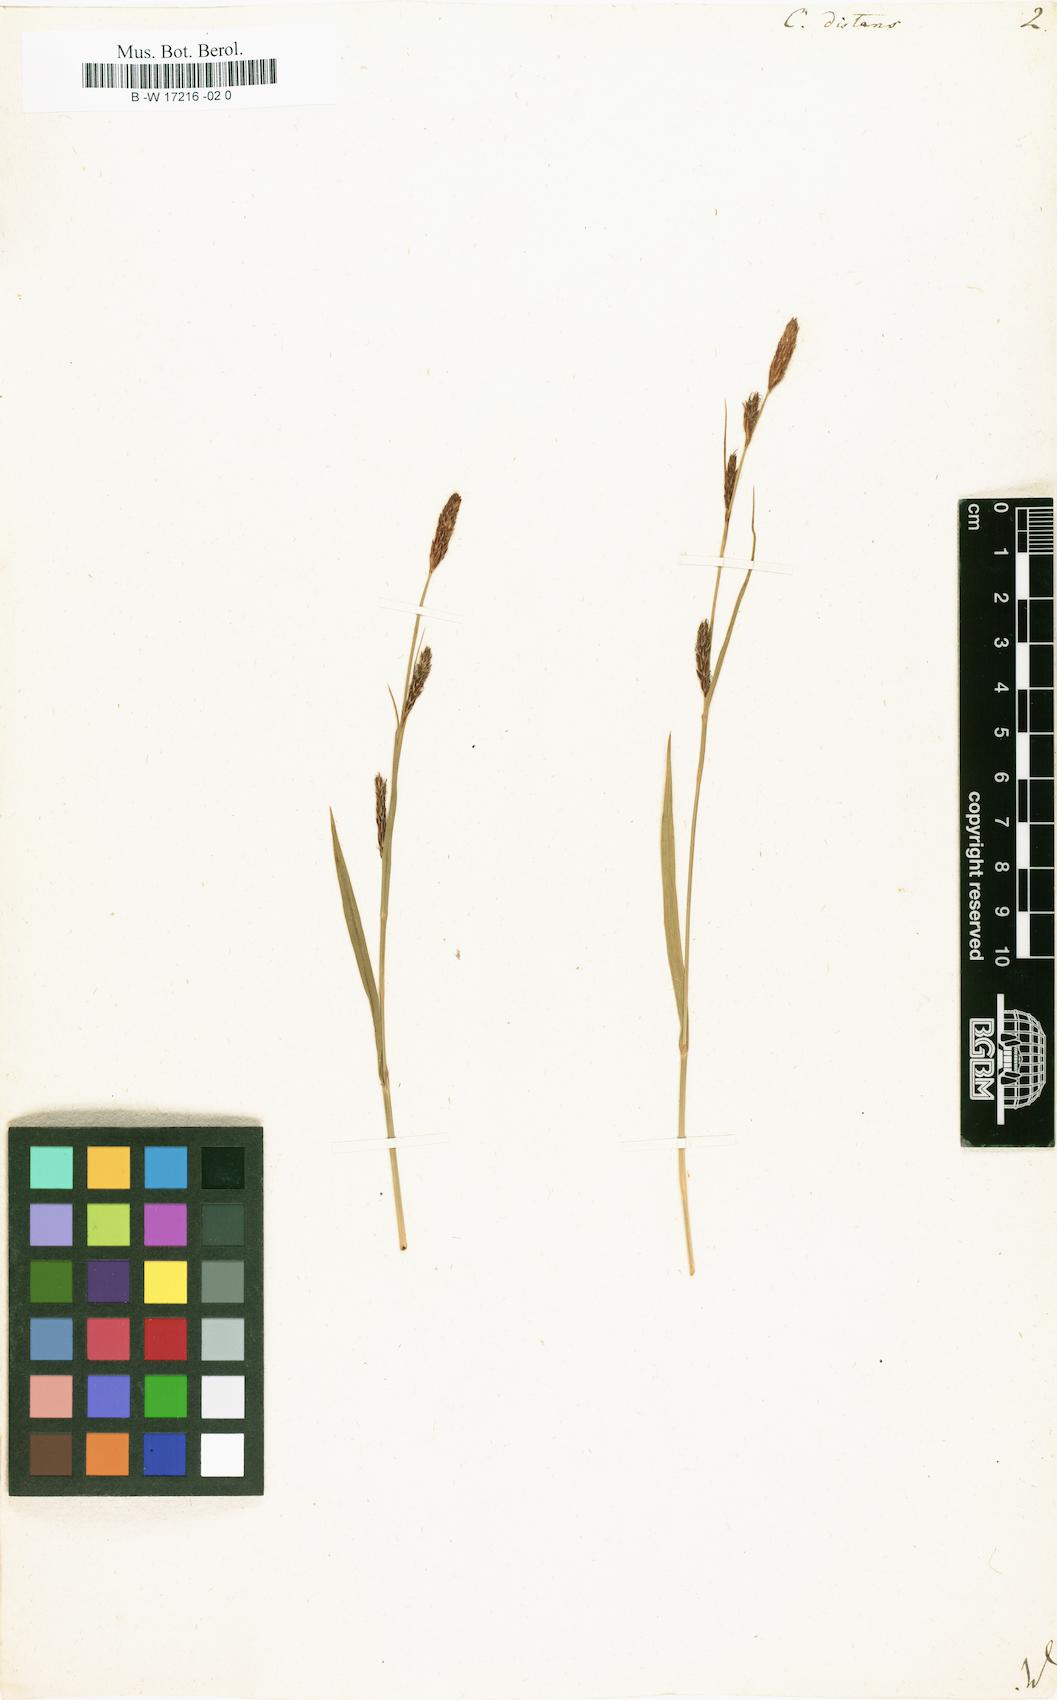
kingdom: Plantae
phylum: Tracheophyta
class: Liliopsida
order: Poales
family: Cyperaceae
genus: Carex
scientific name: Carex distans
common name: Distant sedge
